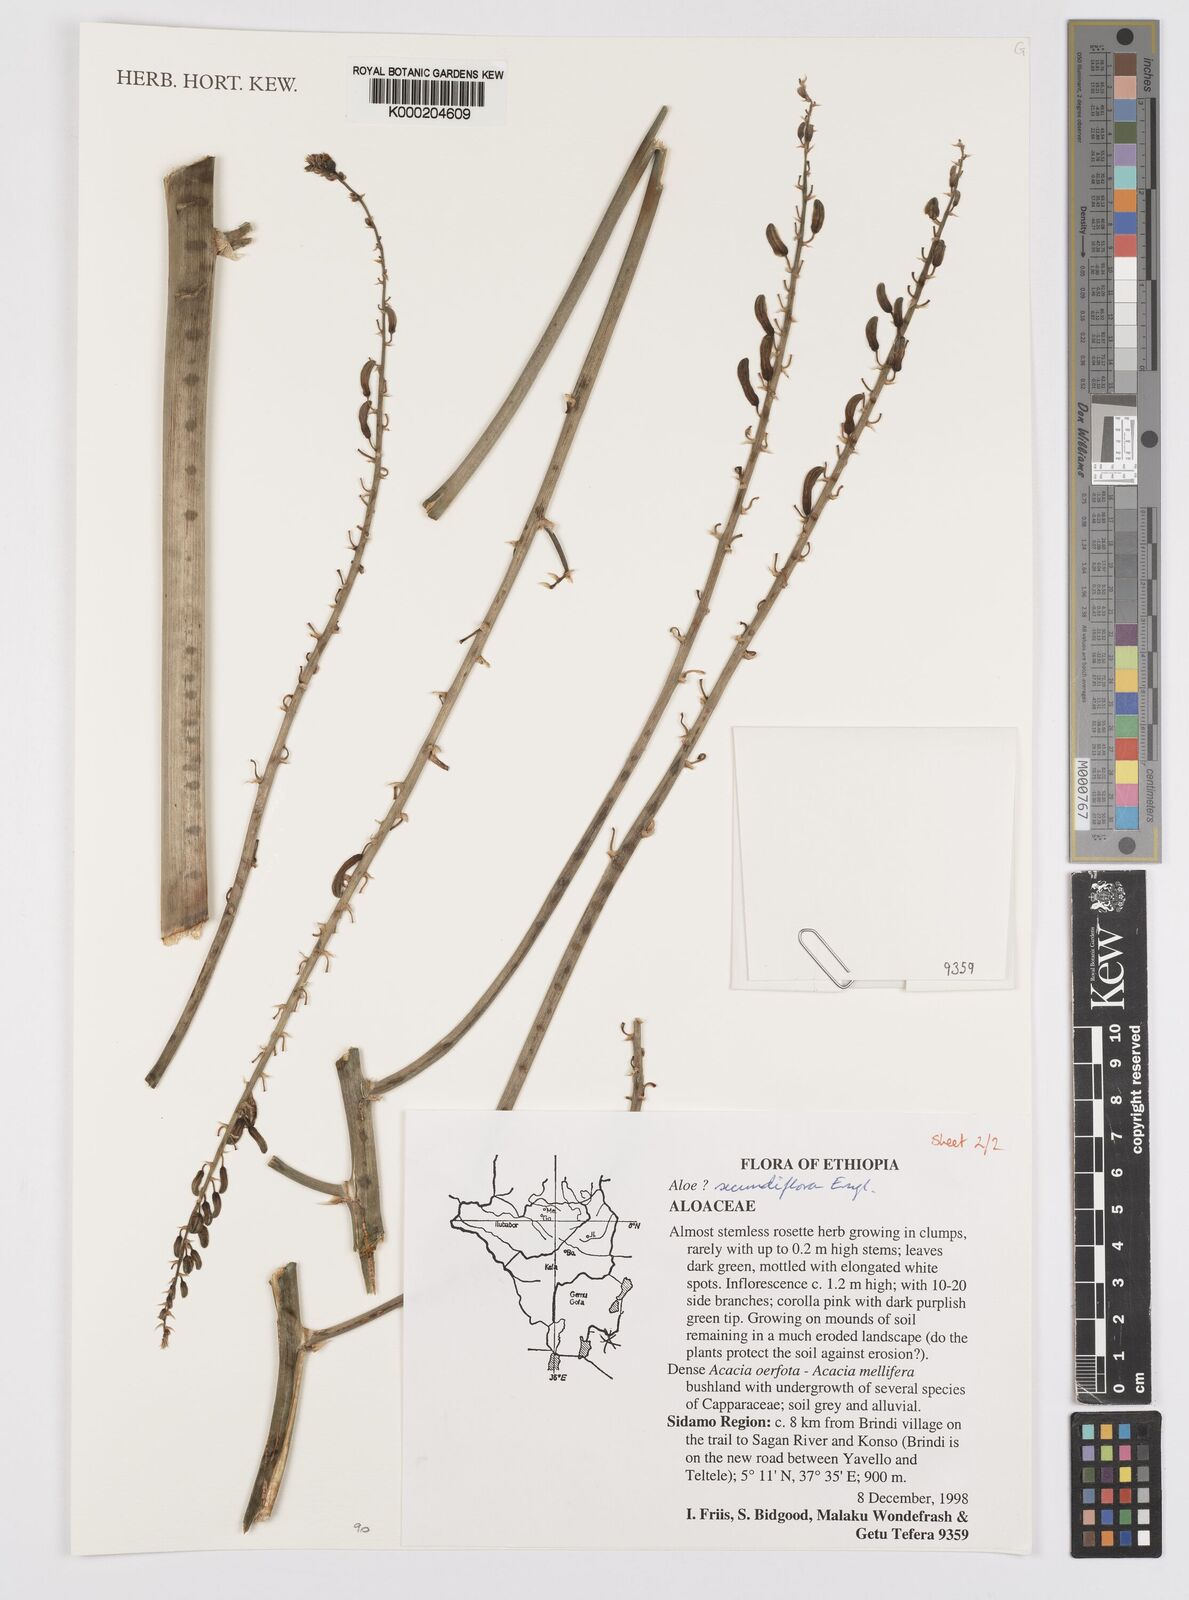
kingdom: Plantae
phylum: Tracheophyta
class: Liliopsida
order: Asparagales
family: Asphodelaceae
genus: Aloe
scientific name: Aloe secundiflora
